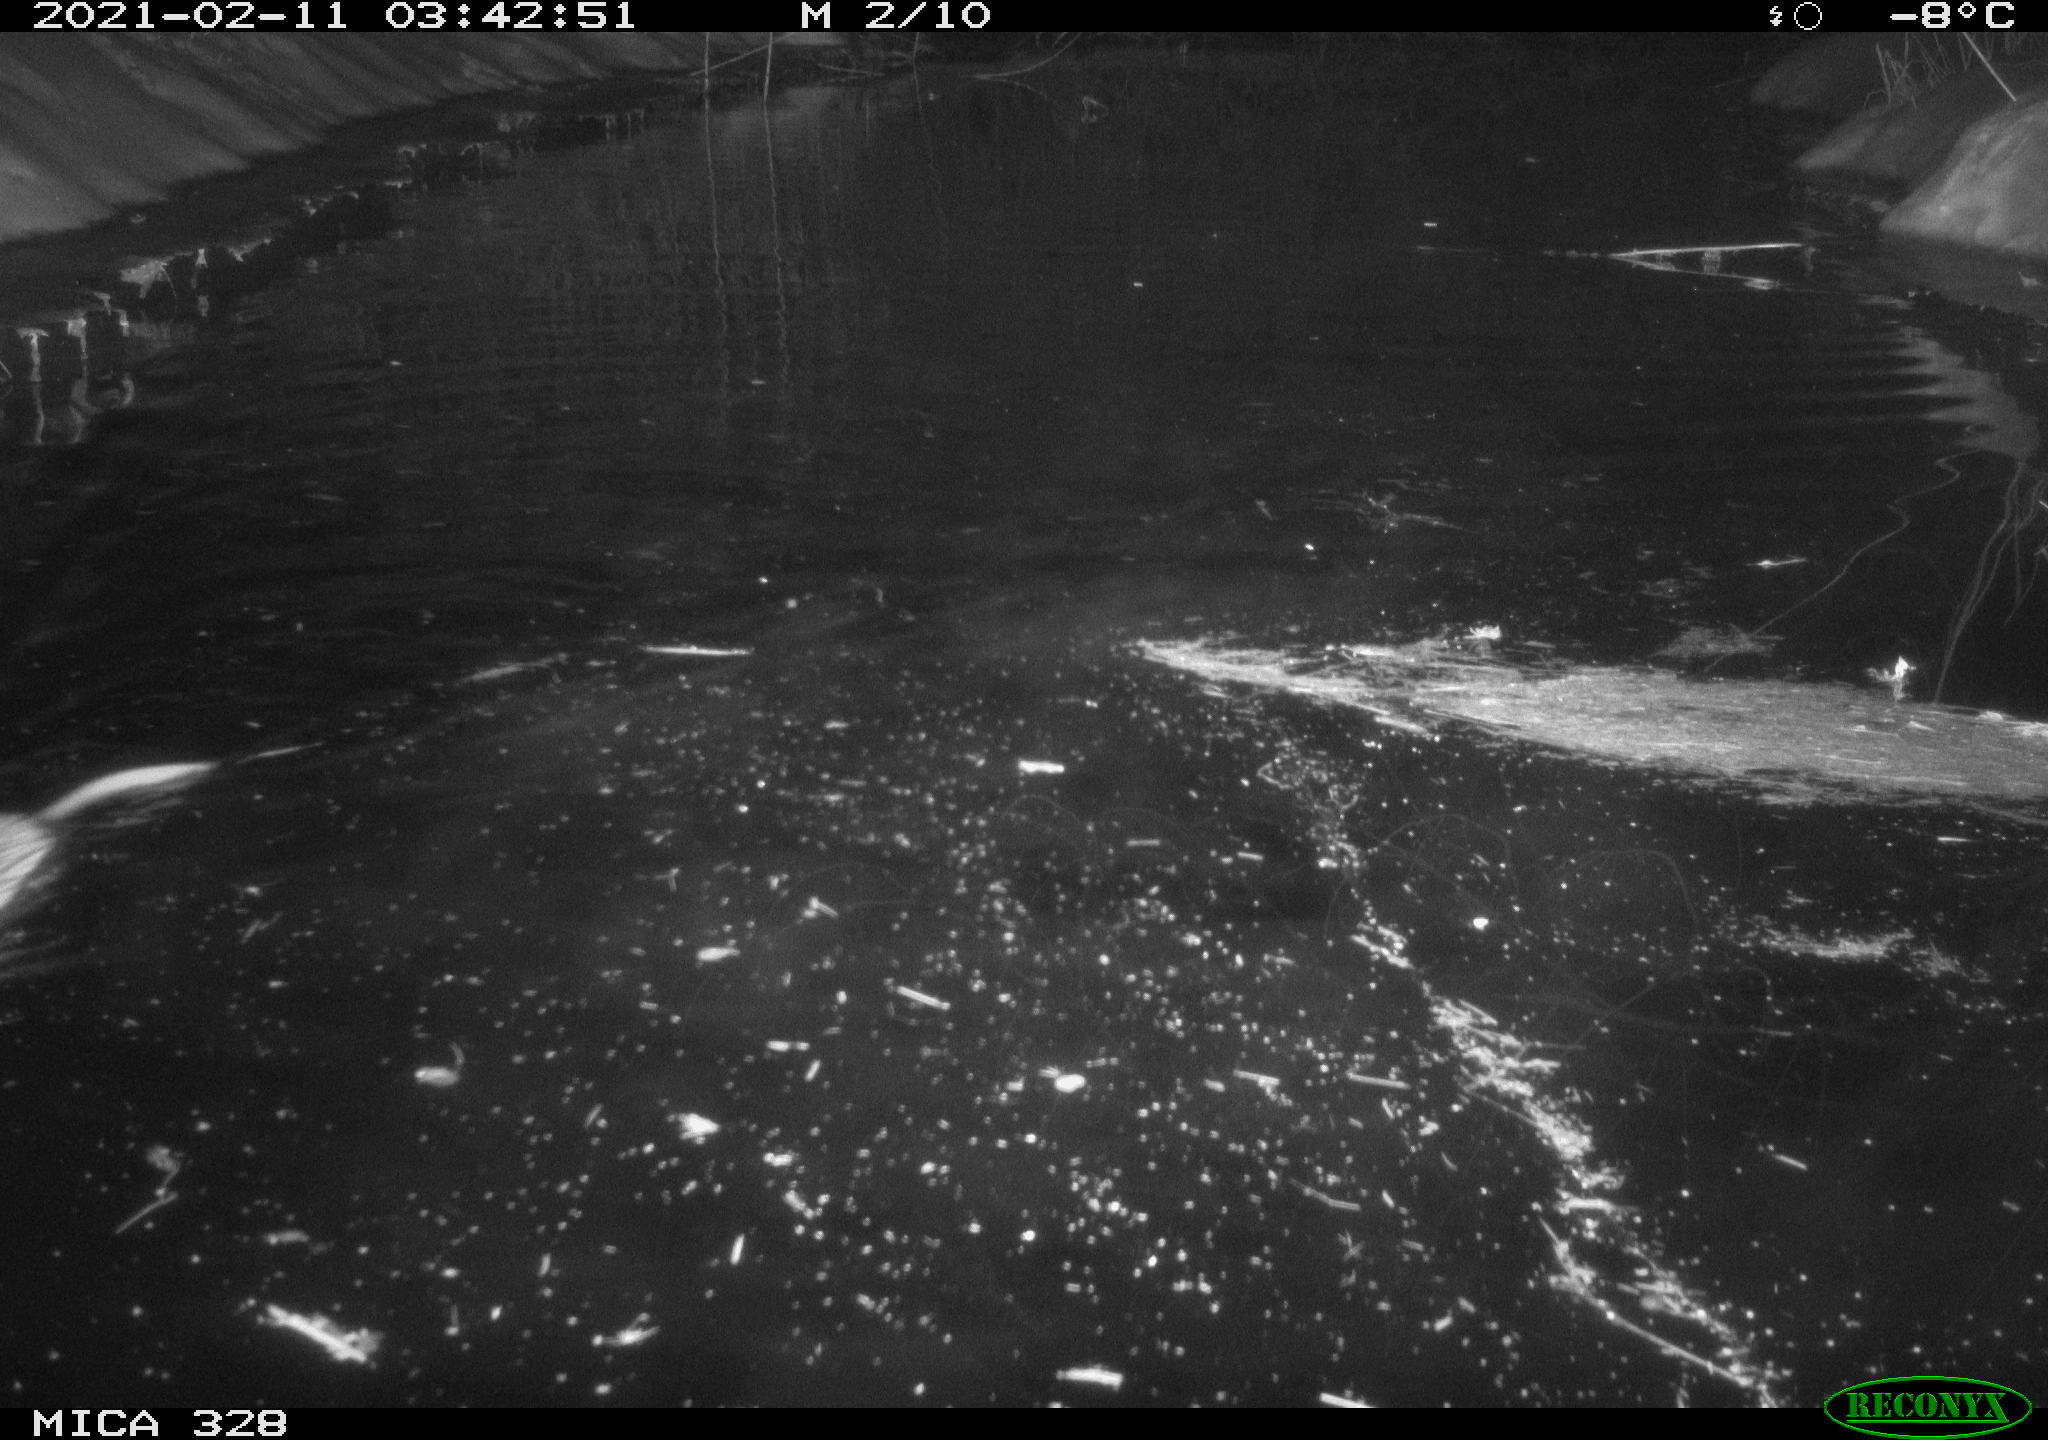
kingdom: Animalia
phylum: Chordata
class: Mammalia
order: Rodentia
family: Cricetidae
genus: Ondatra
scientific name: Ondatra zibethicus
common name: Muskrat
